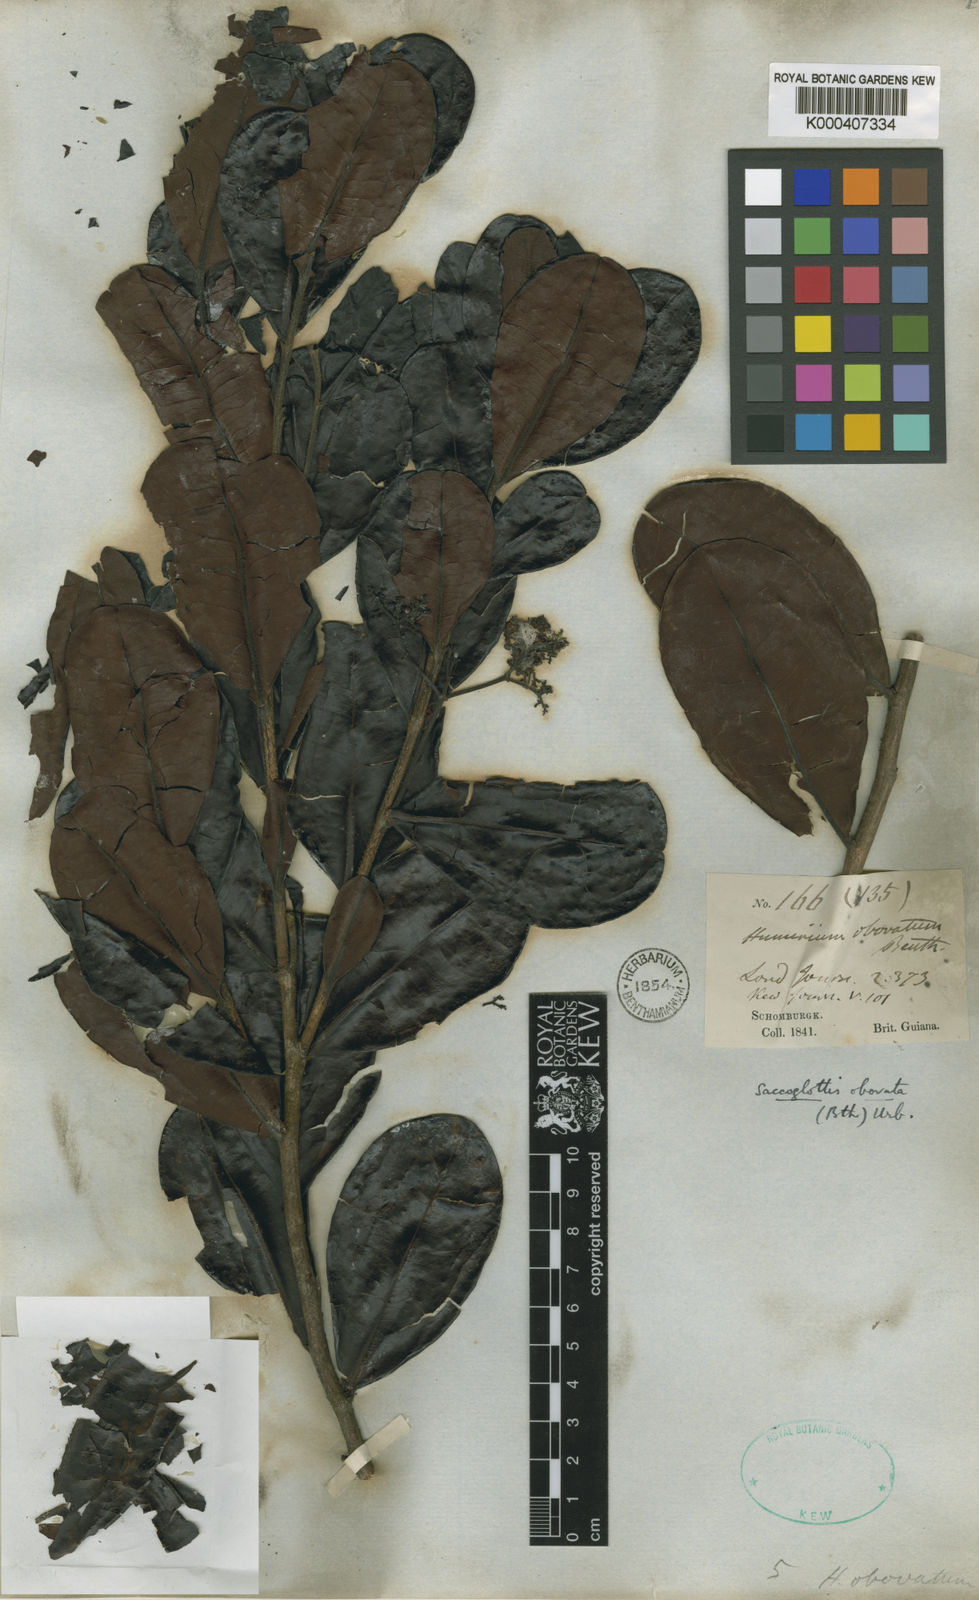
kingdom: Plantae
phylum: Tracheophyta
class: Magnoliopsida
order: Malpighiales
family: Humiriaceae
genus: Humiriastrum
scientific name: Humiriastrum obovatum
